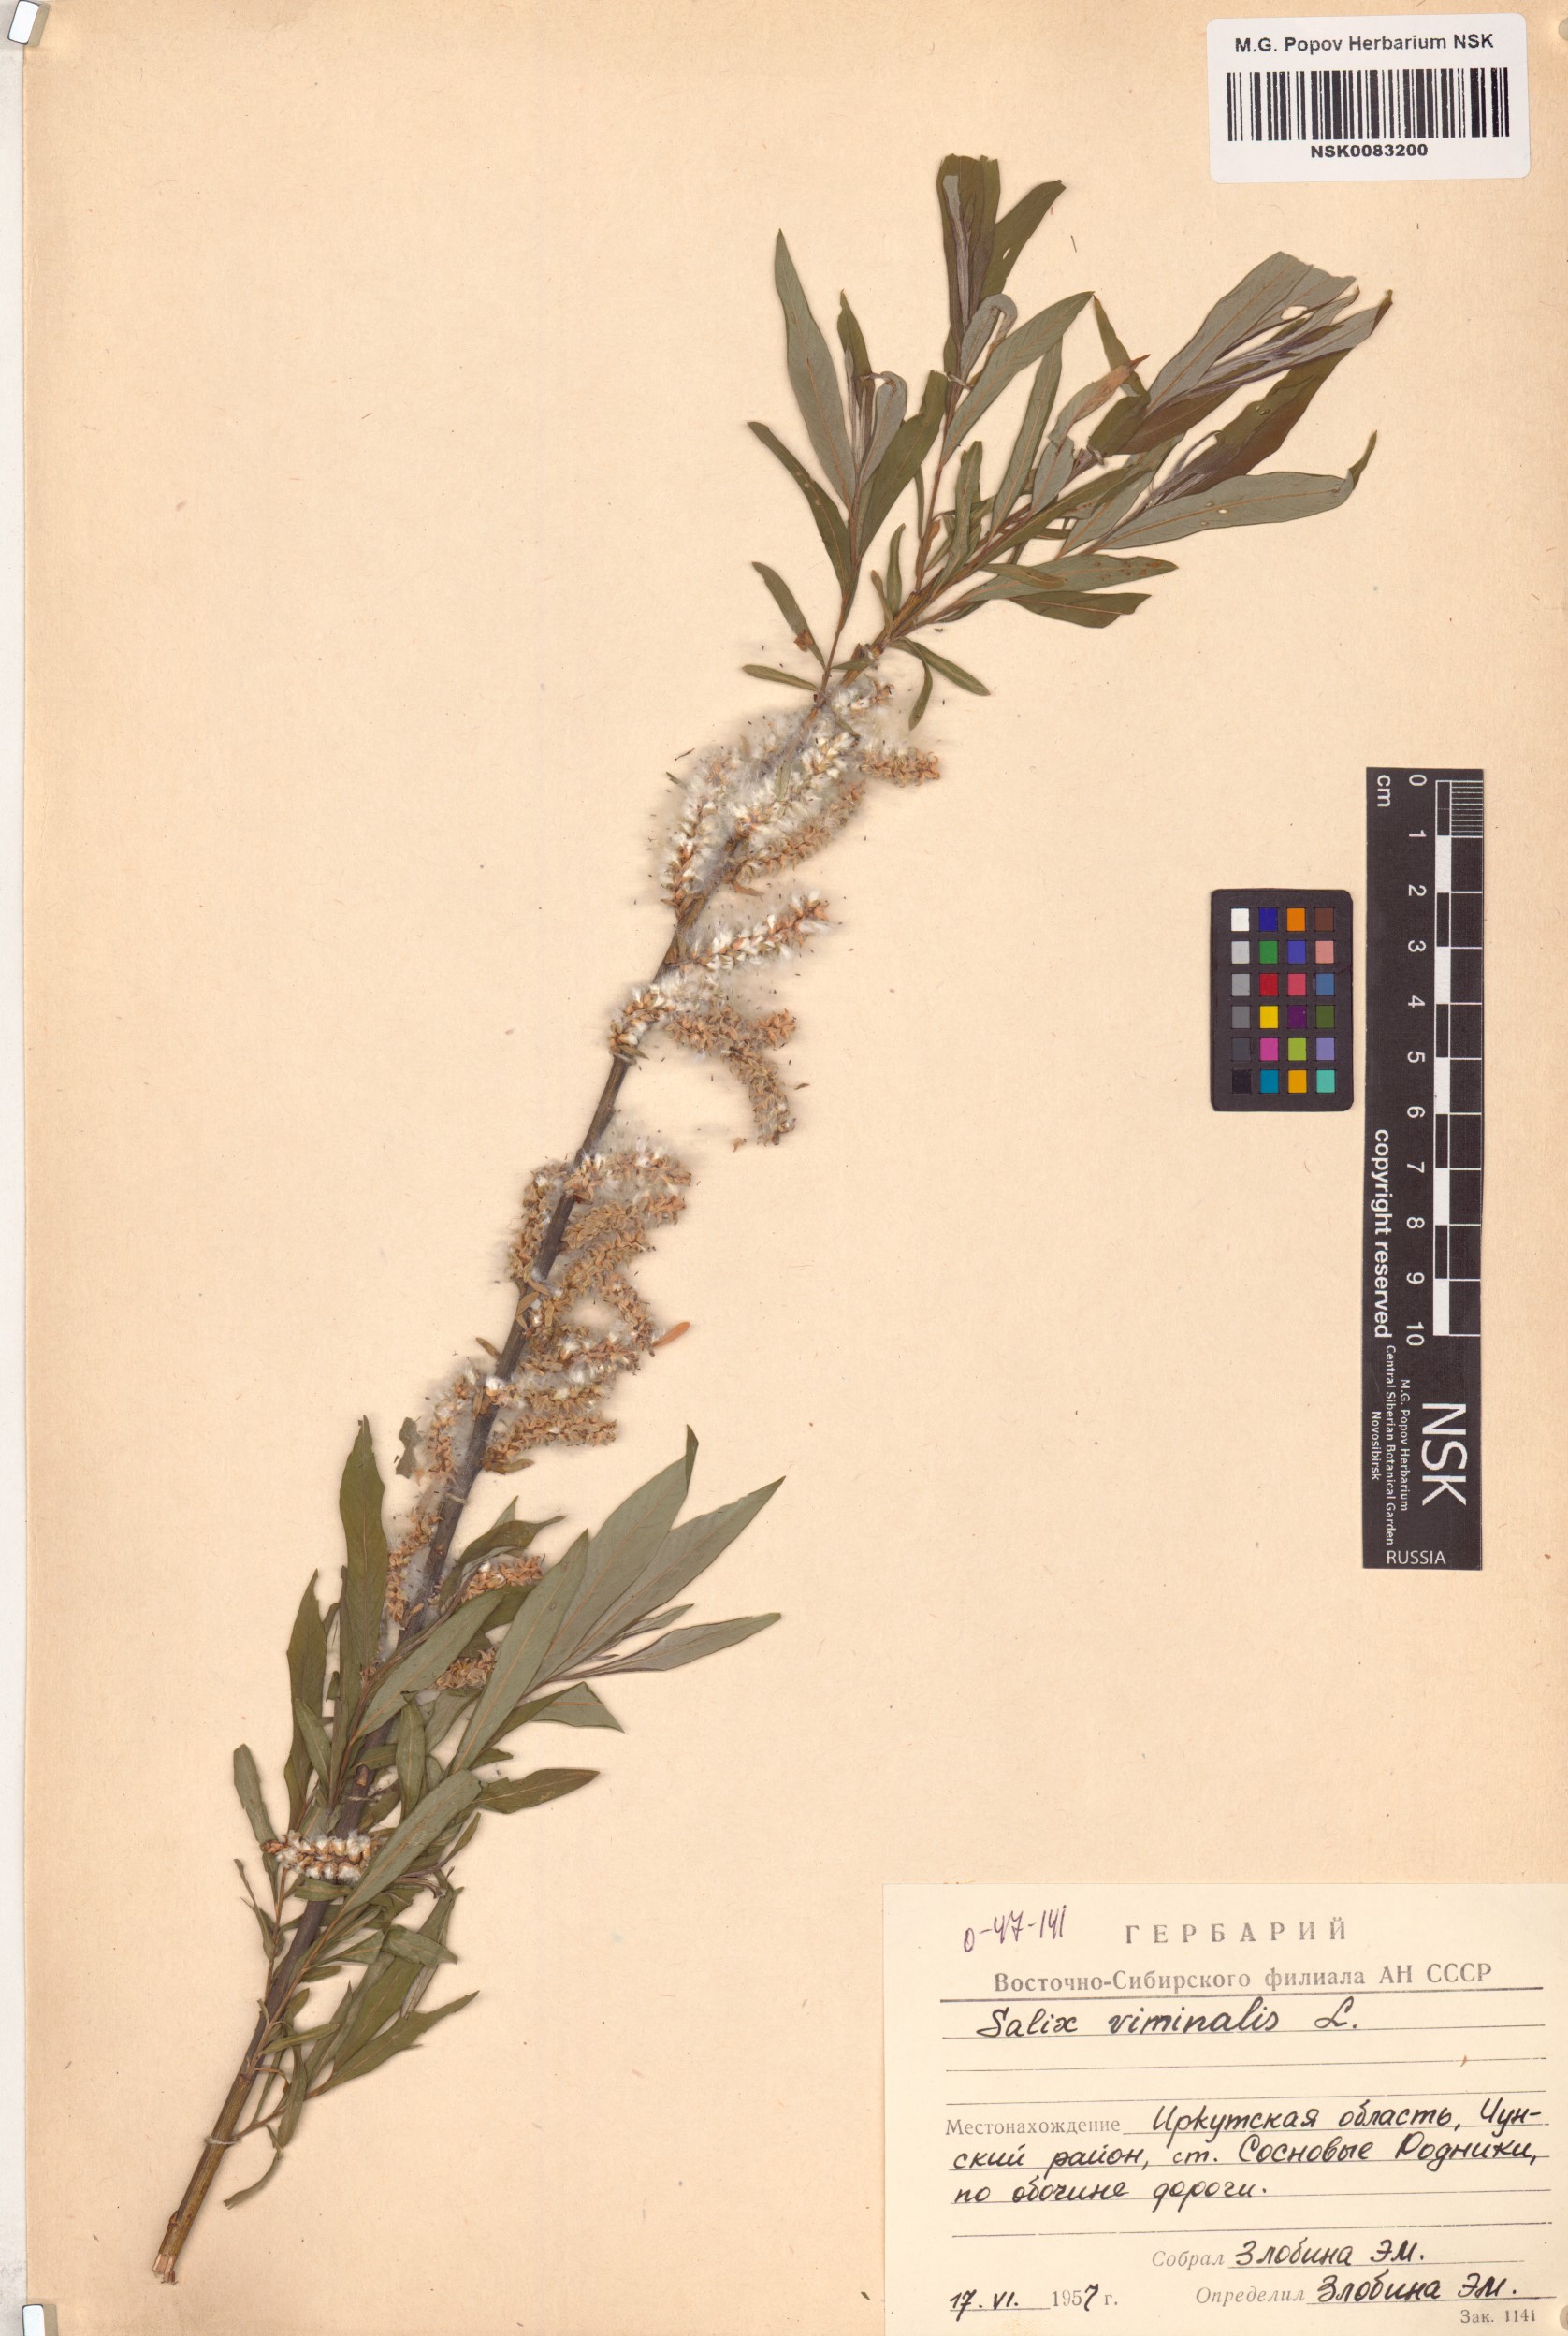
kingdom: Plantae
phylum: Tracheophyta
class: Magnoliopsida
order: Malpighiales
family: Salicaceae
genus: Salix
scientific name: Salix viminalis
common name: Osier
